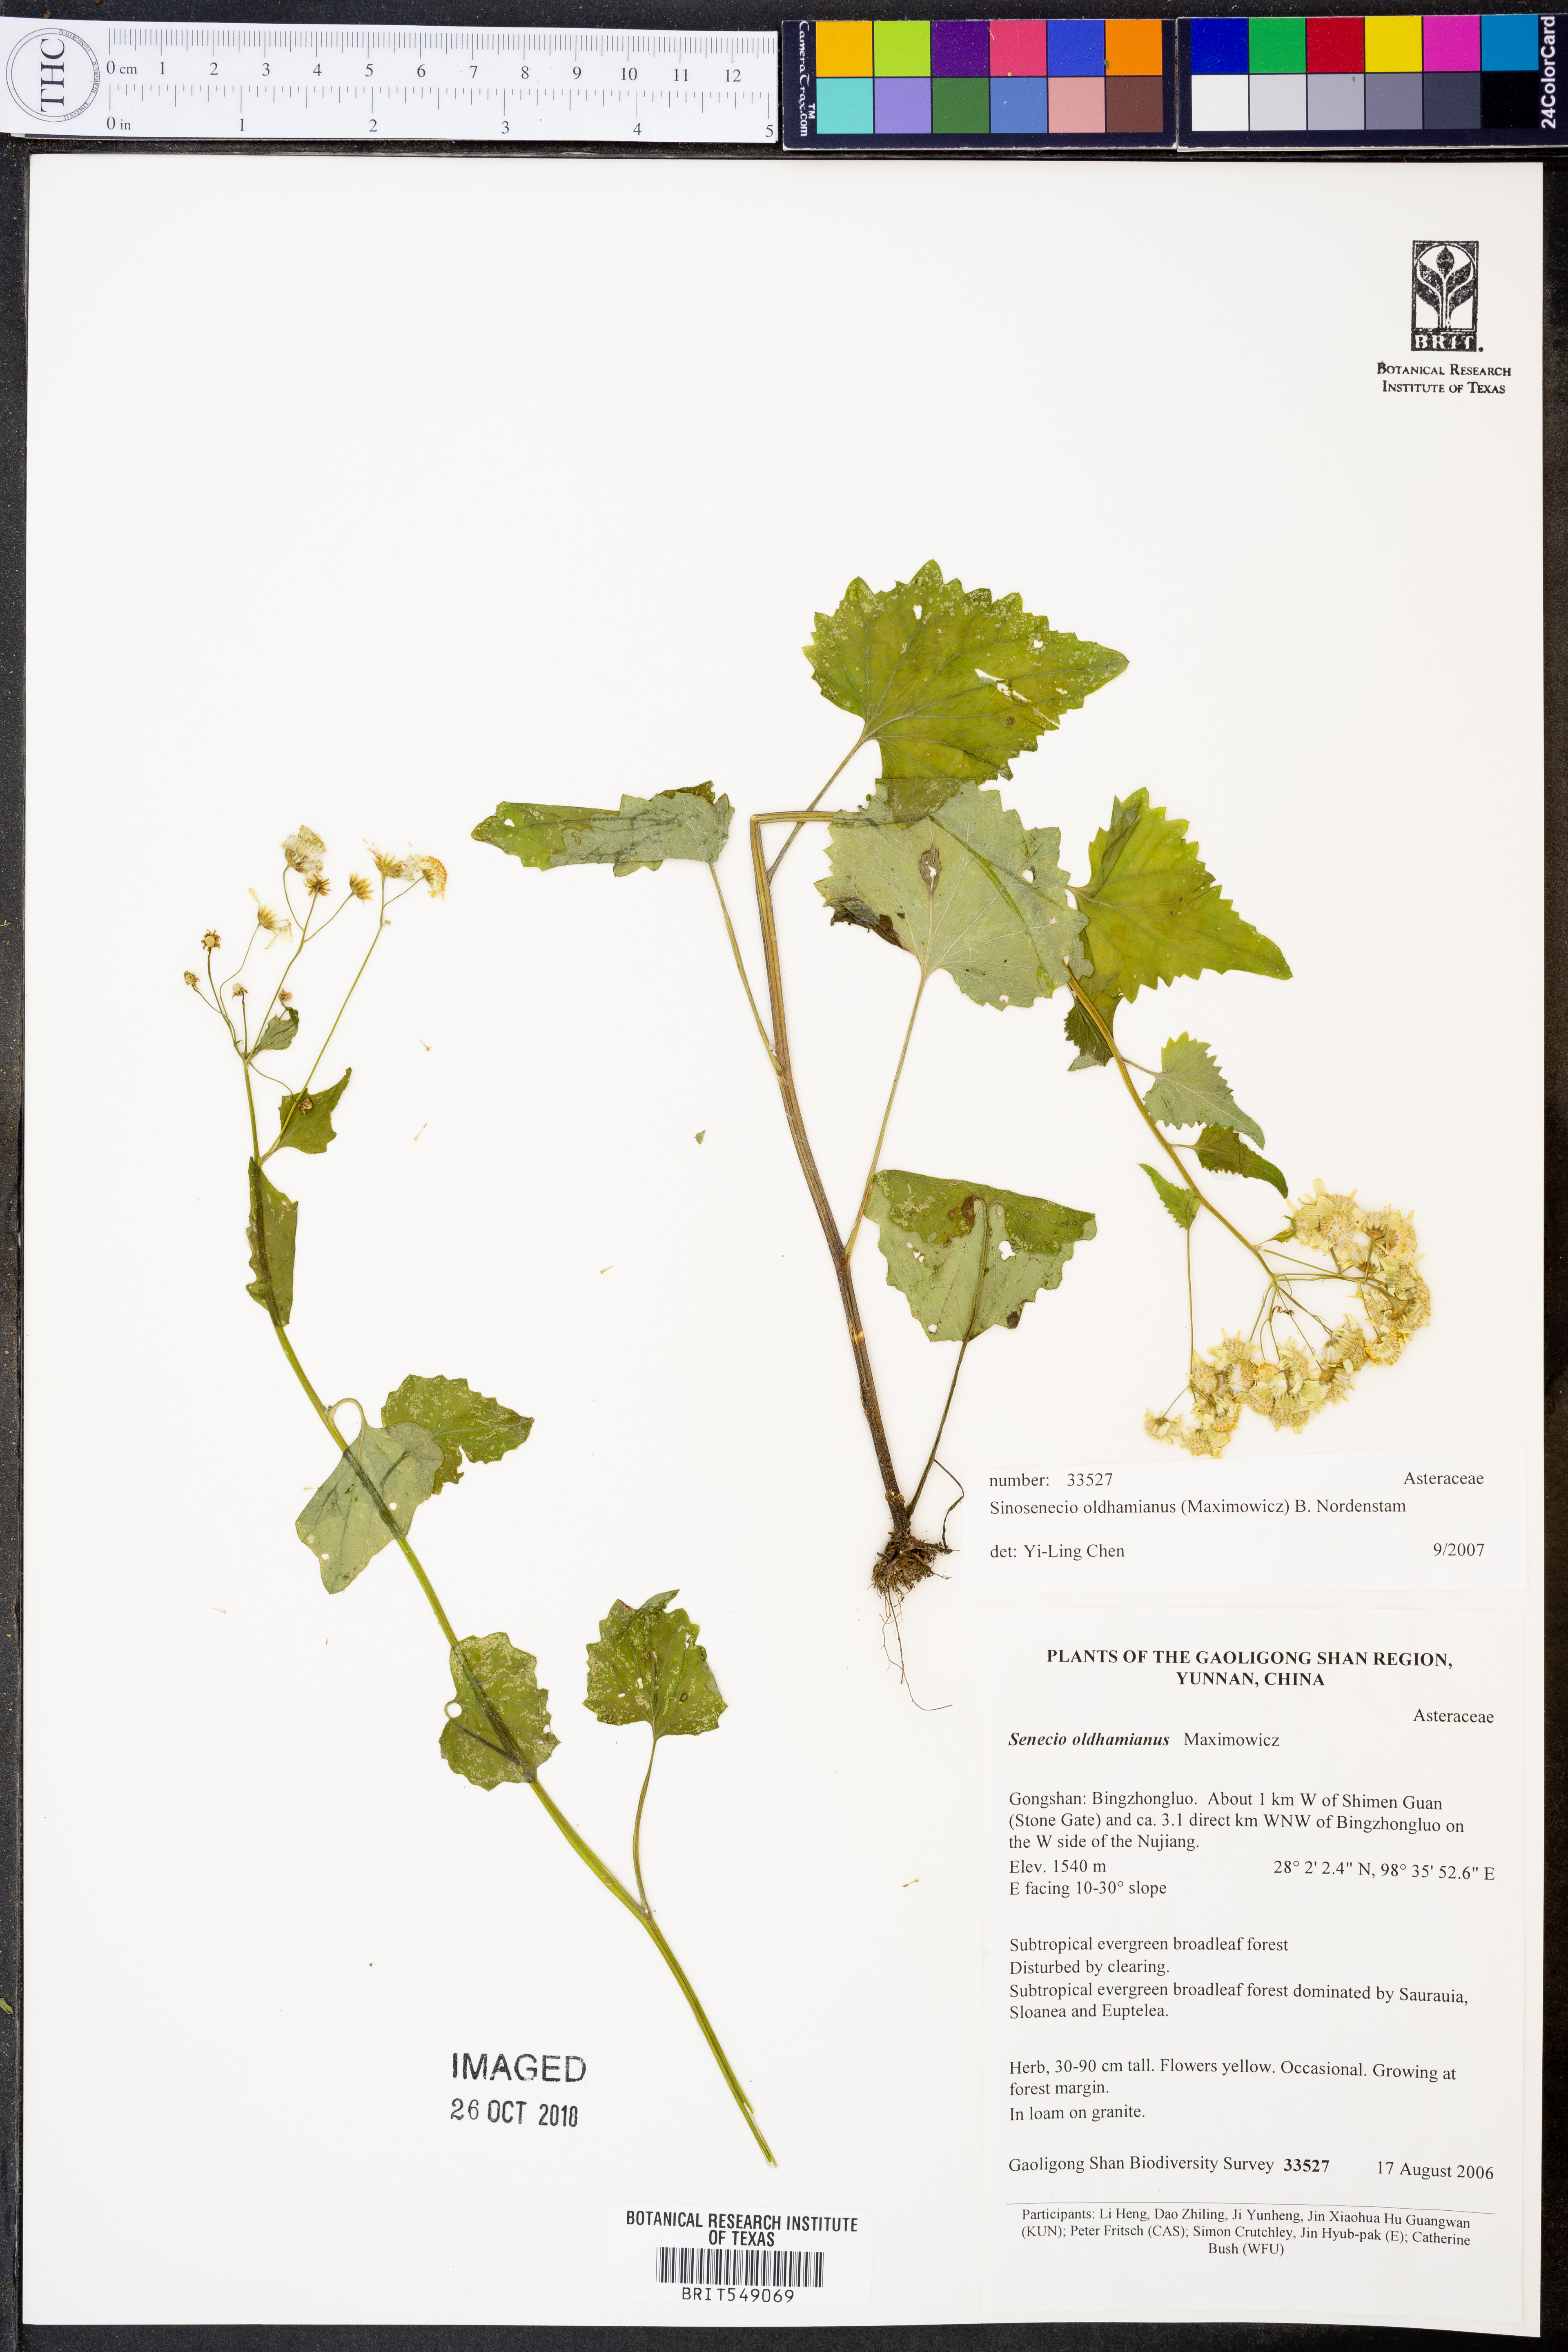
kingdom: Plantae
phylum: Tracheophyta
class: Magnoliopsida
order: Asterales
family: Asteraceae
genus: Sinosenecio
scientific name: Sinosenecio oldhamianus
